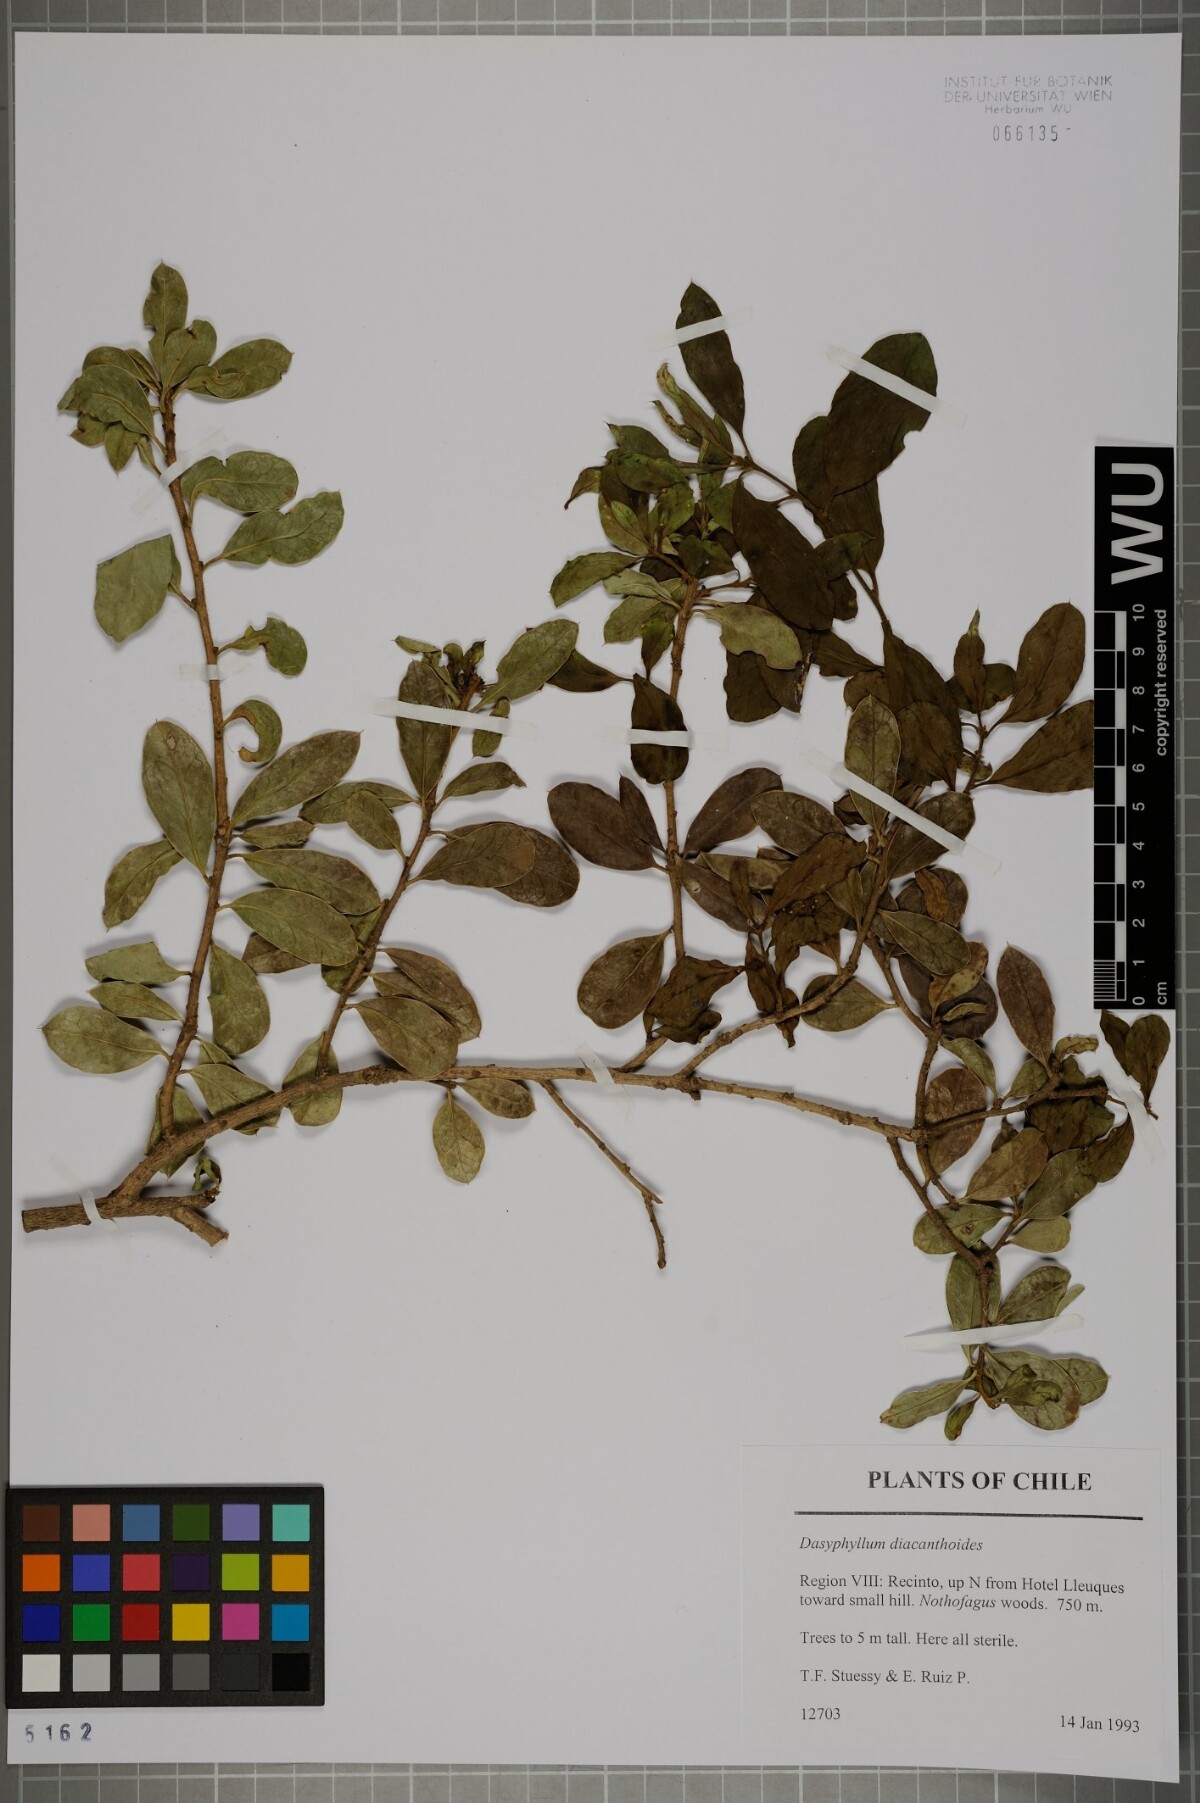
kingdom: Plantae
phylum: Tracheophyta
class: Magnoliopsida
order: Asterales
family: Asteraceae
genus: Archidasyphyllum
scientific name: Archidasyphyllum diacanthoides
